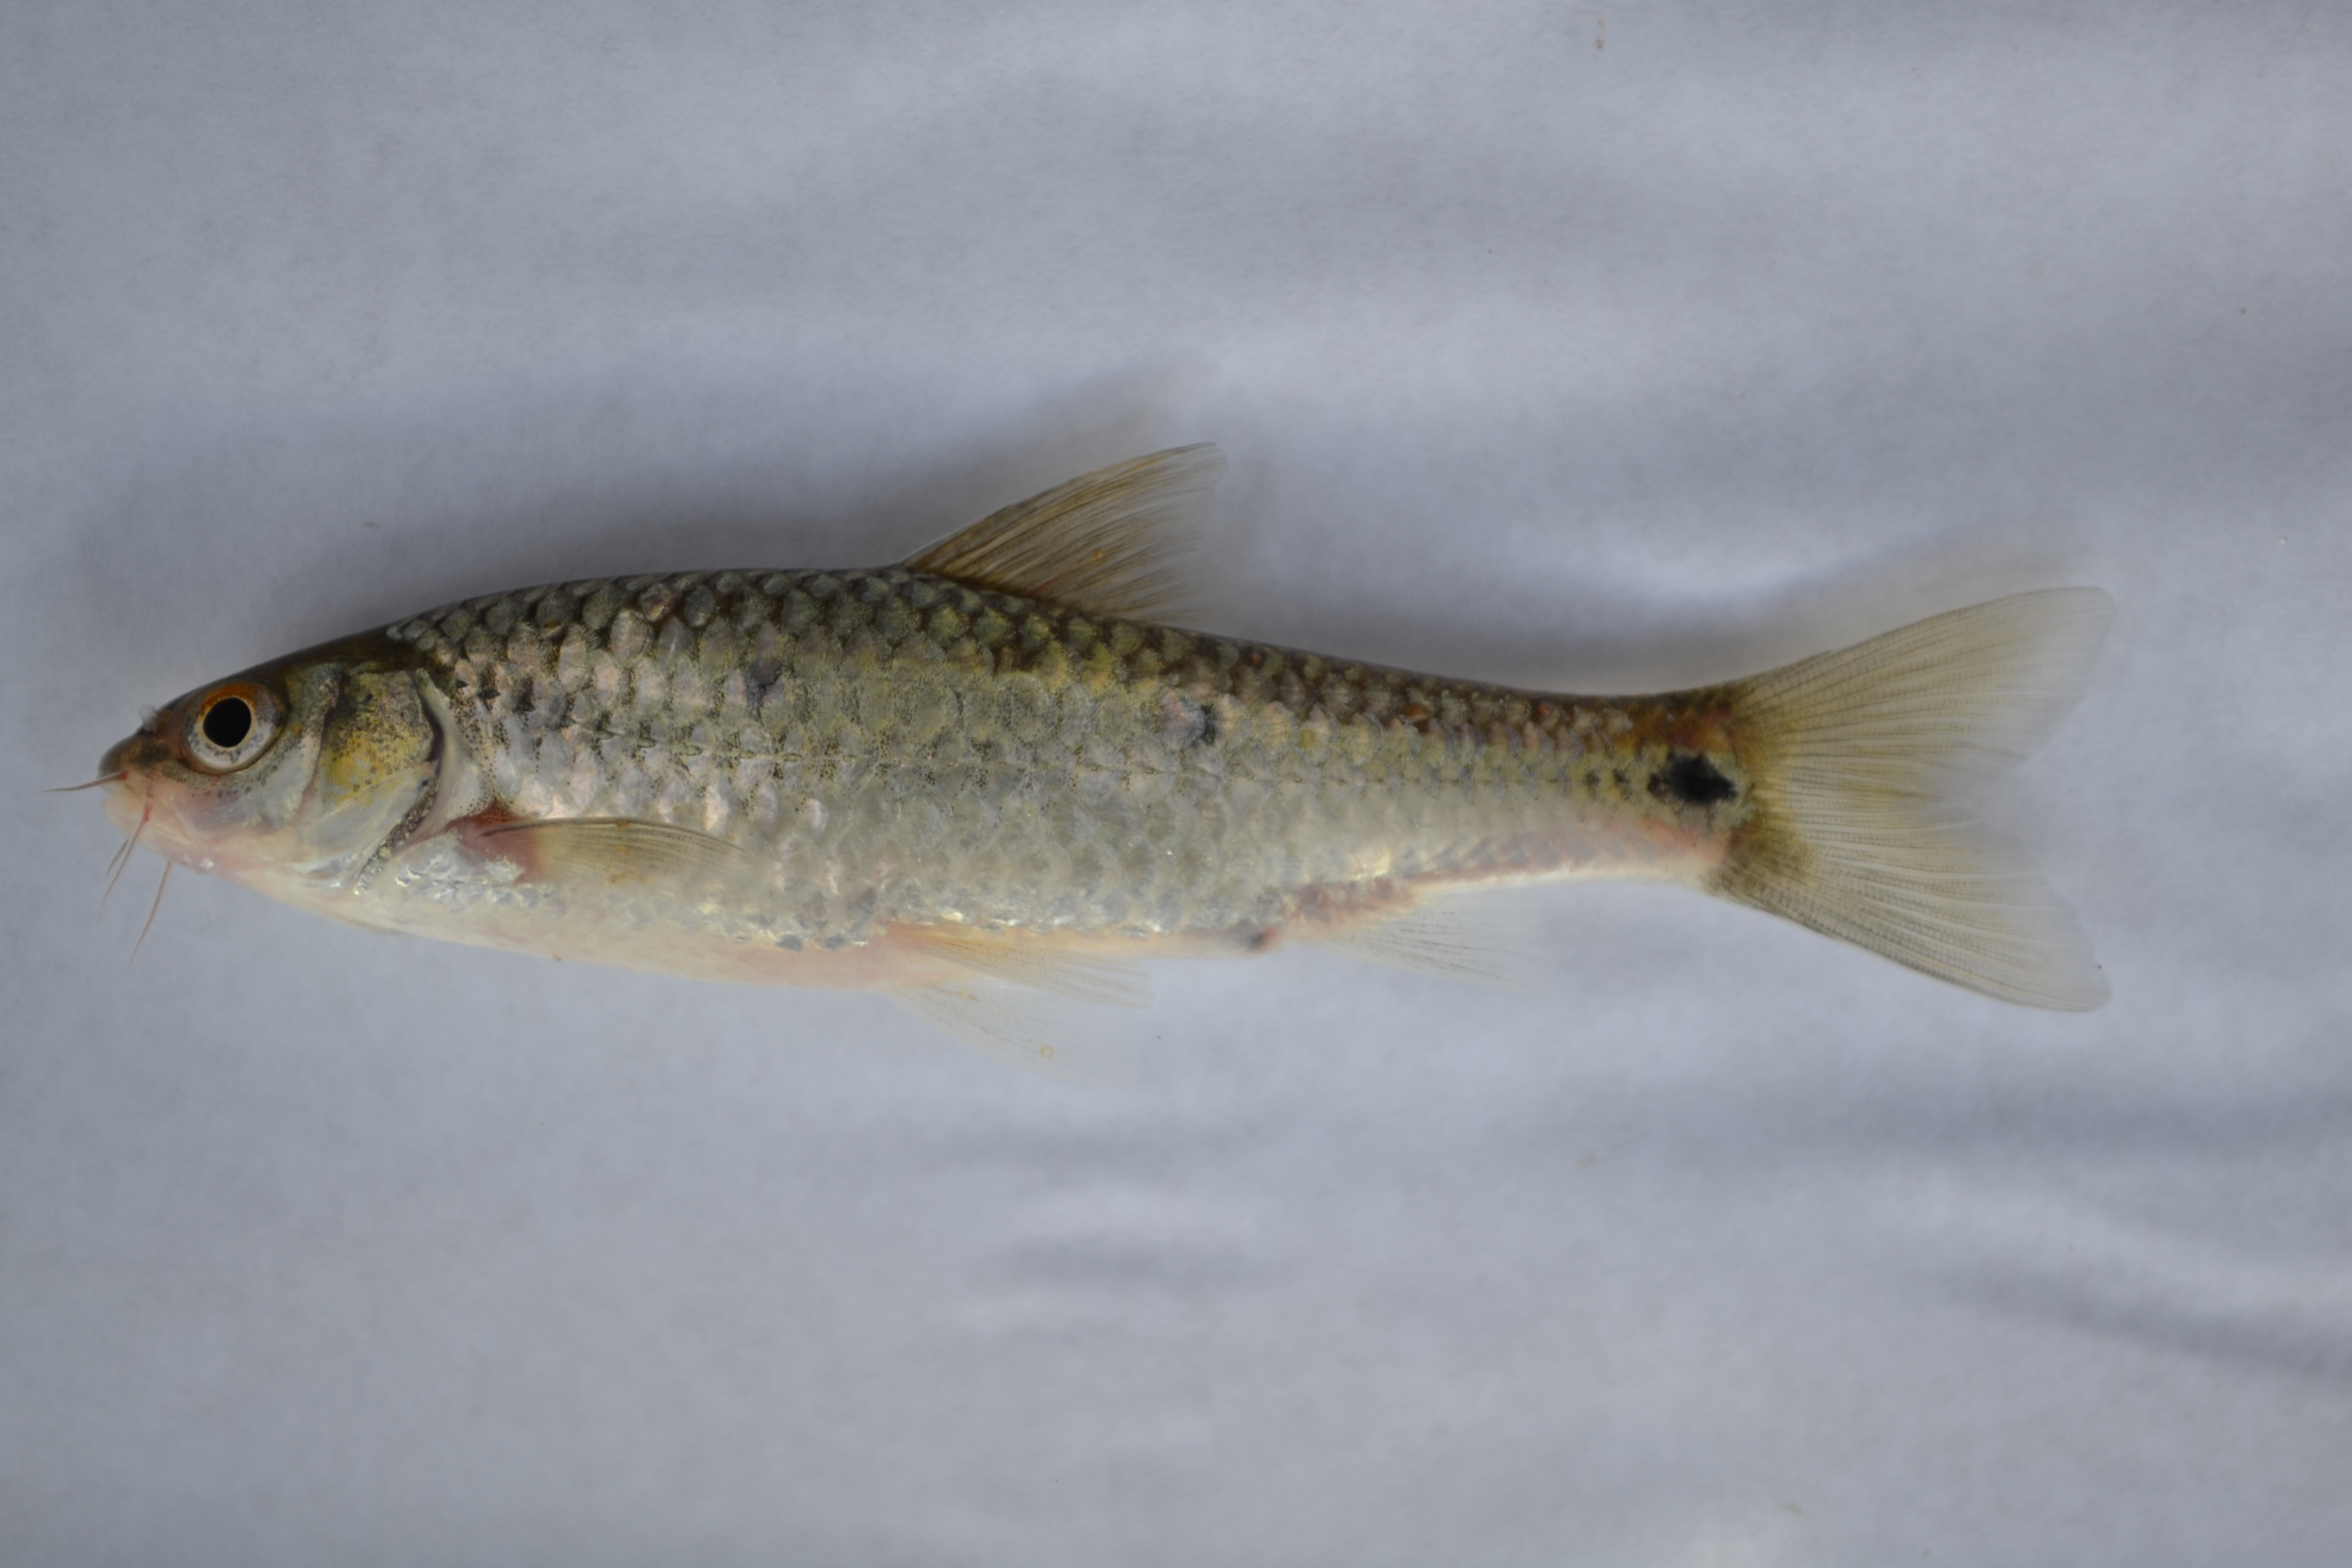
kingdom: Animalia
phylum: Chordata
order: Cypriniformes
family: Cyprinidae
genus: Enteromius
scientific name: Enteromius trimaculatus
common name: Threespot barb
